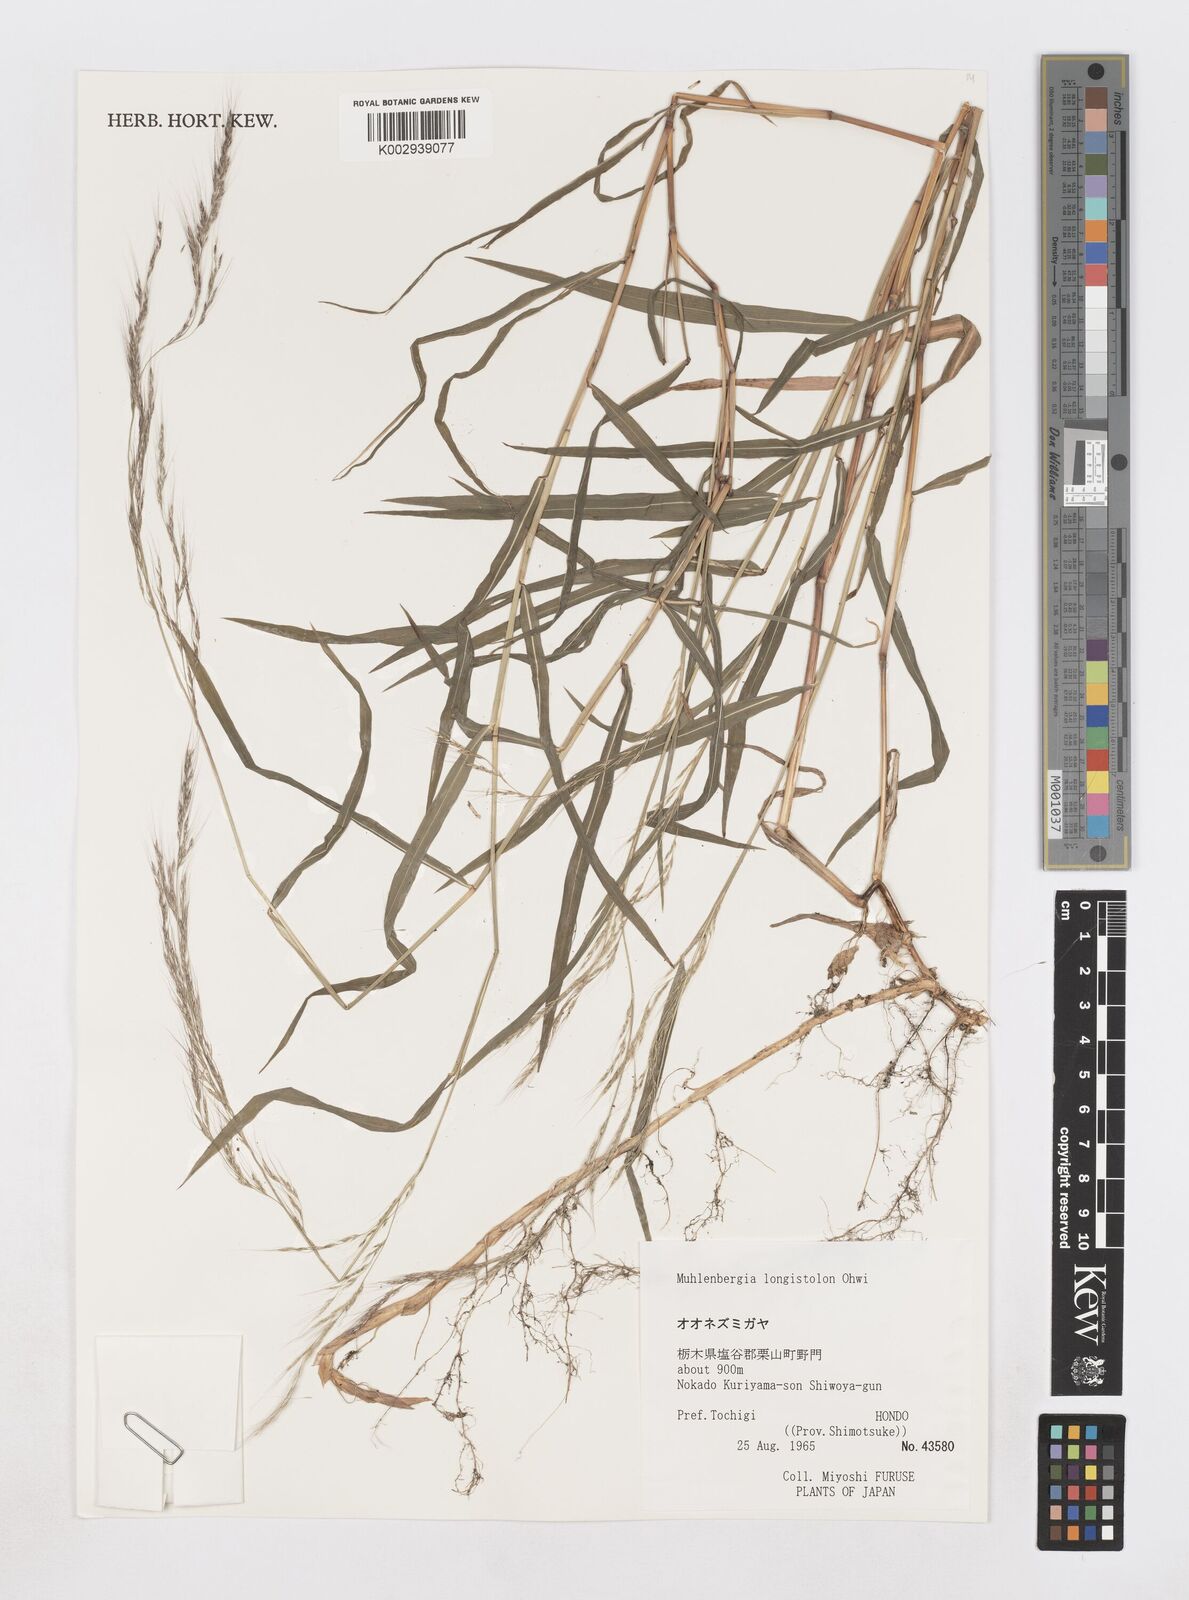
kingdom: Plantae
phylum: Tracheophyta
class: Liliopsida
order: Poales
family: Poaceae
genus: Muhlenbergia
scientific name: Muhlenbergia huegelii
